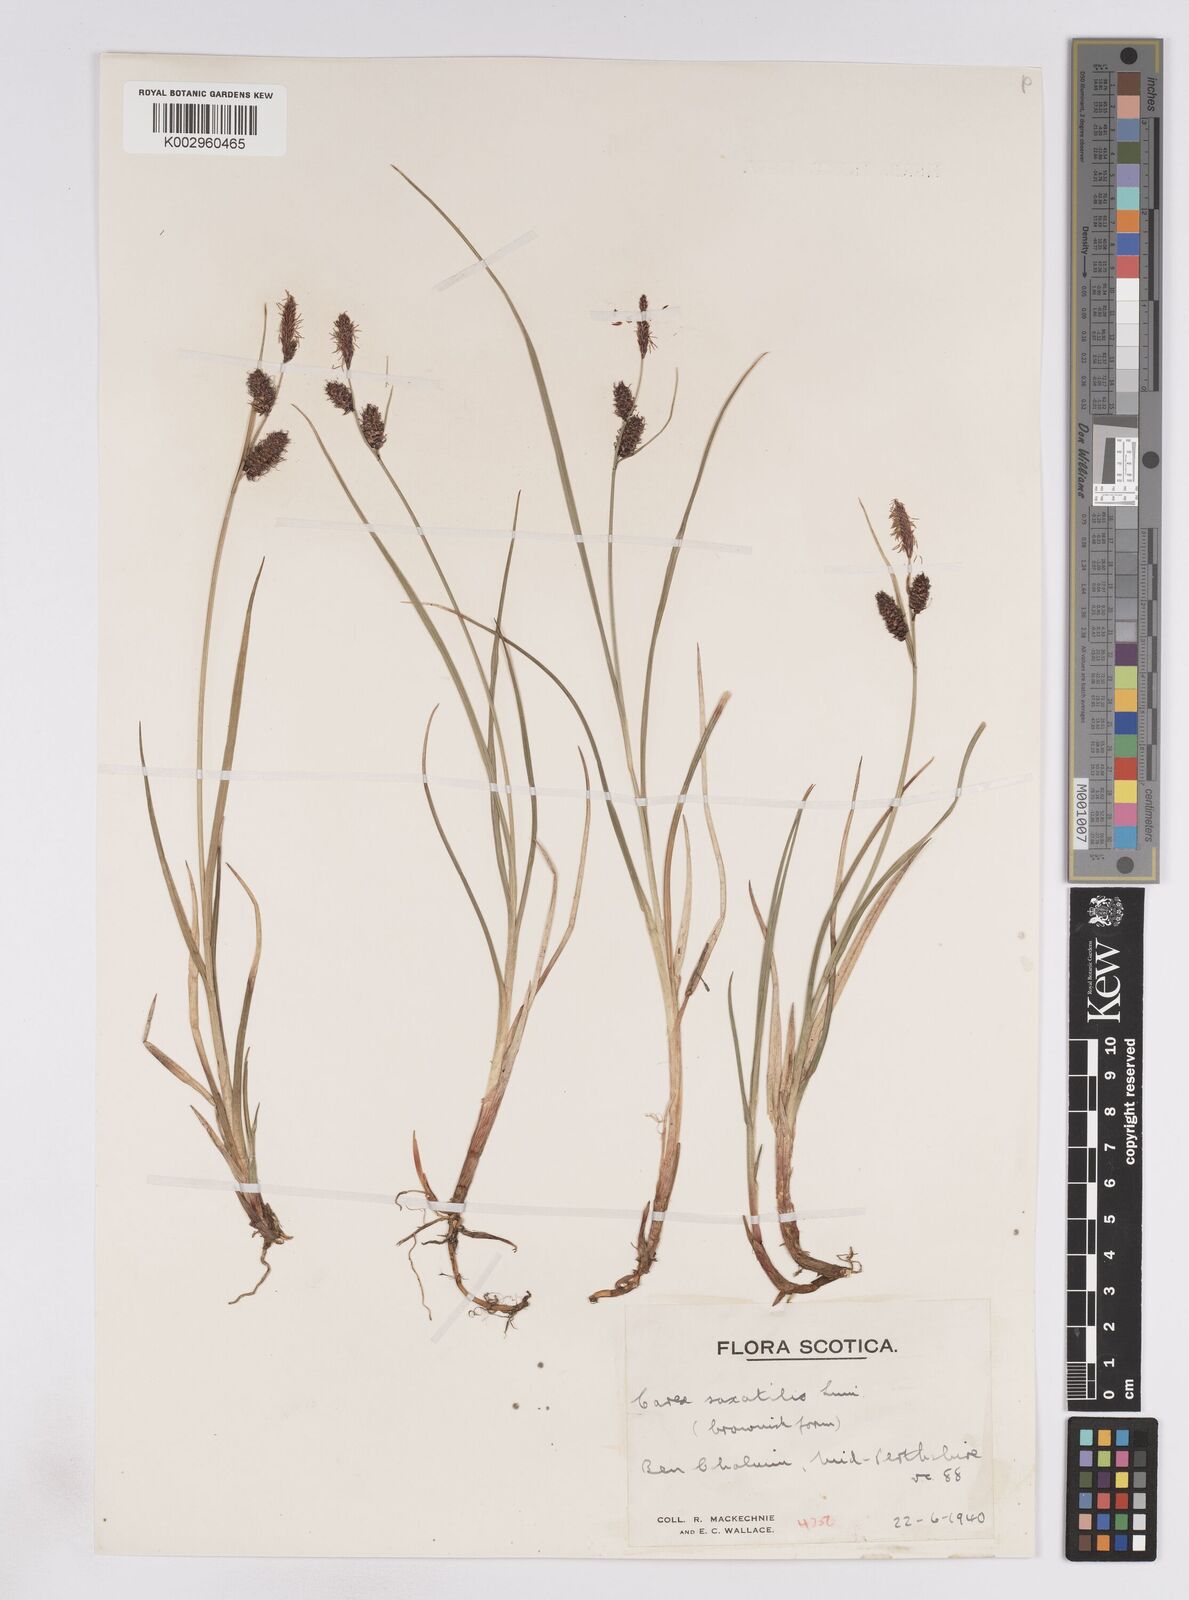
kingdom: Plantae
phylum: Tracheophyta
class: Liliopsida
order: Poales
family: Cyperaceae
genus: Carex
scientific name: Carex saxatilis
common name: Russet sedge
